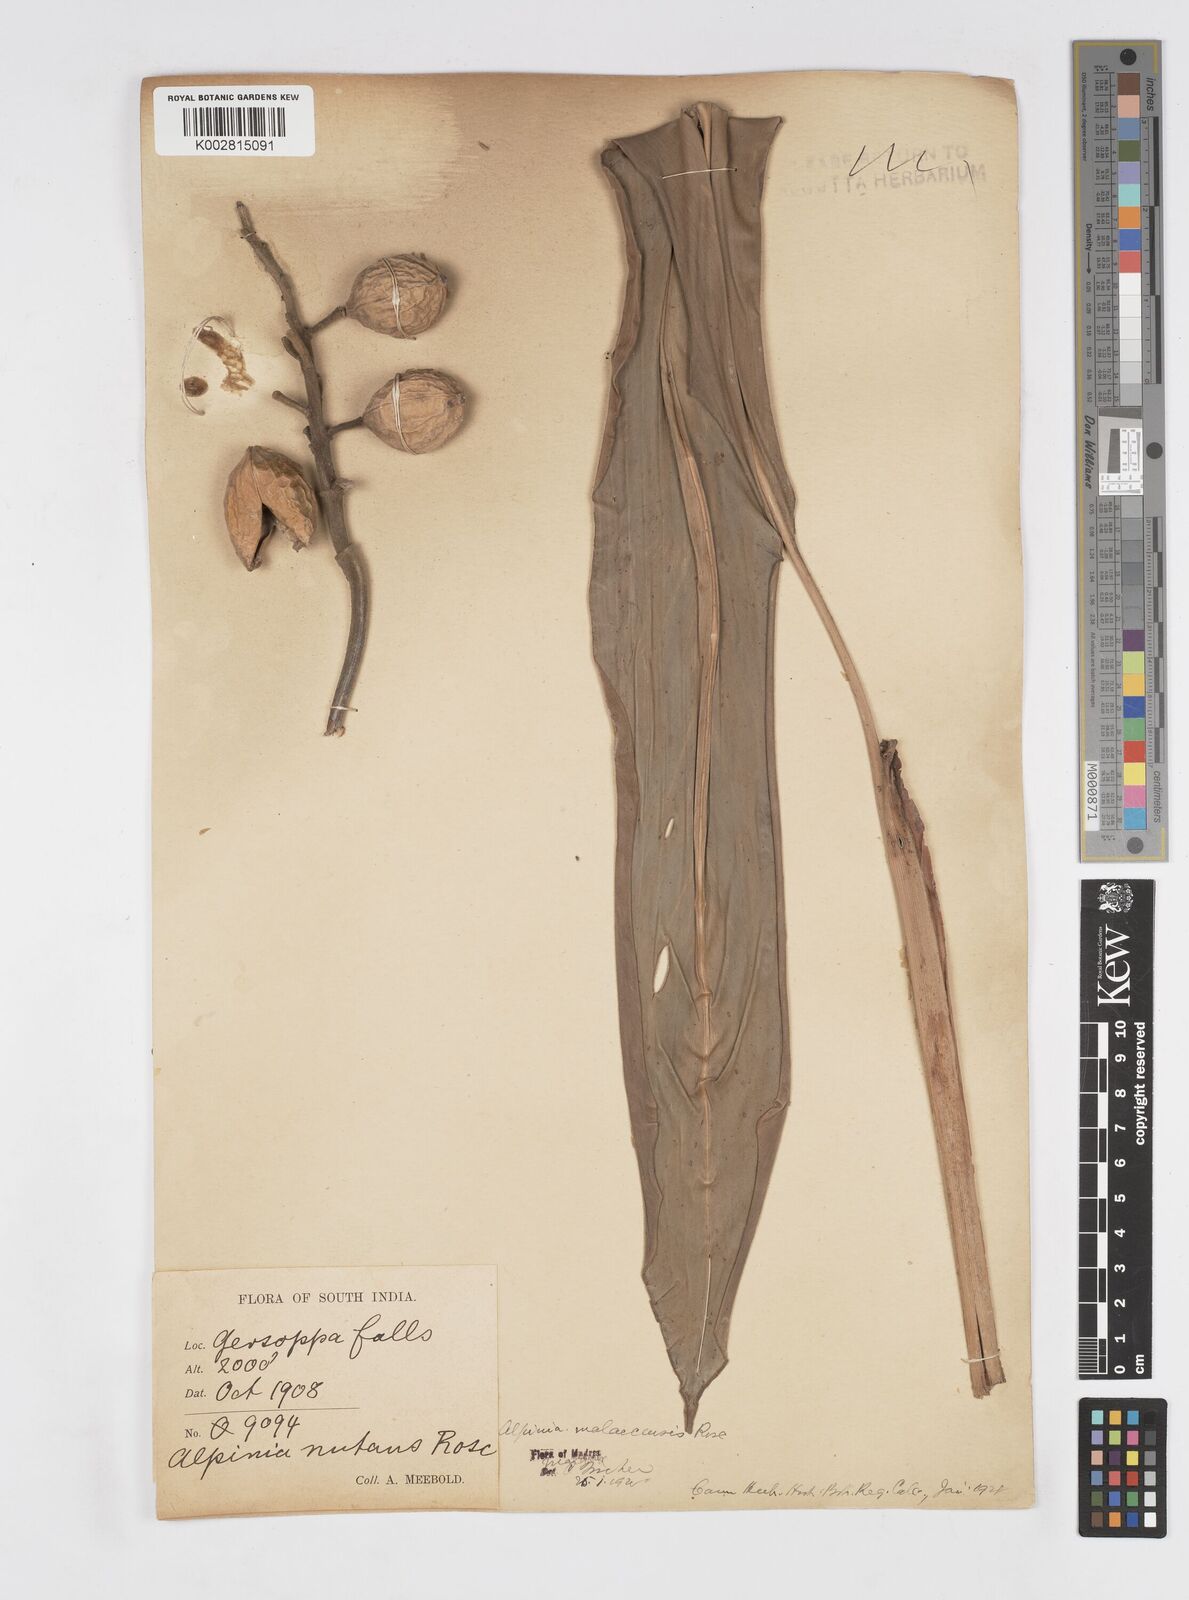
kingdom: Plantae
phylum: Tracheophyta
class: Liliopsida
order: Zingiberales
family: Zingiberaceae
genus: Alpinia
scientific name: Alpinia malaccensis
